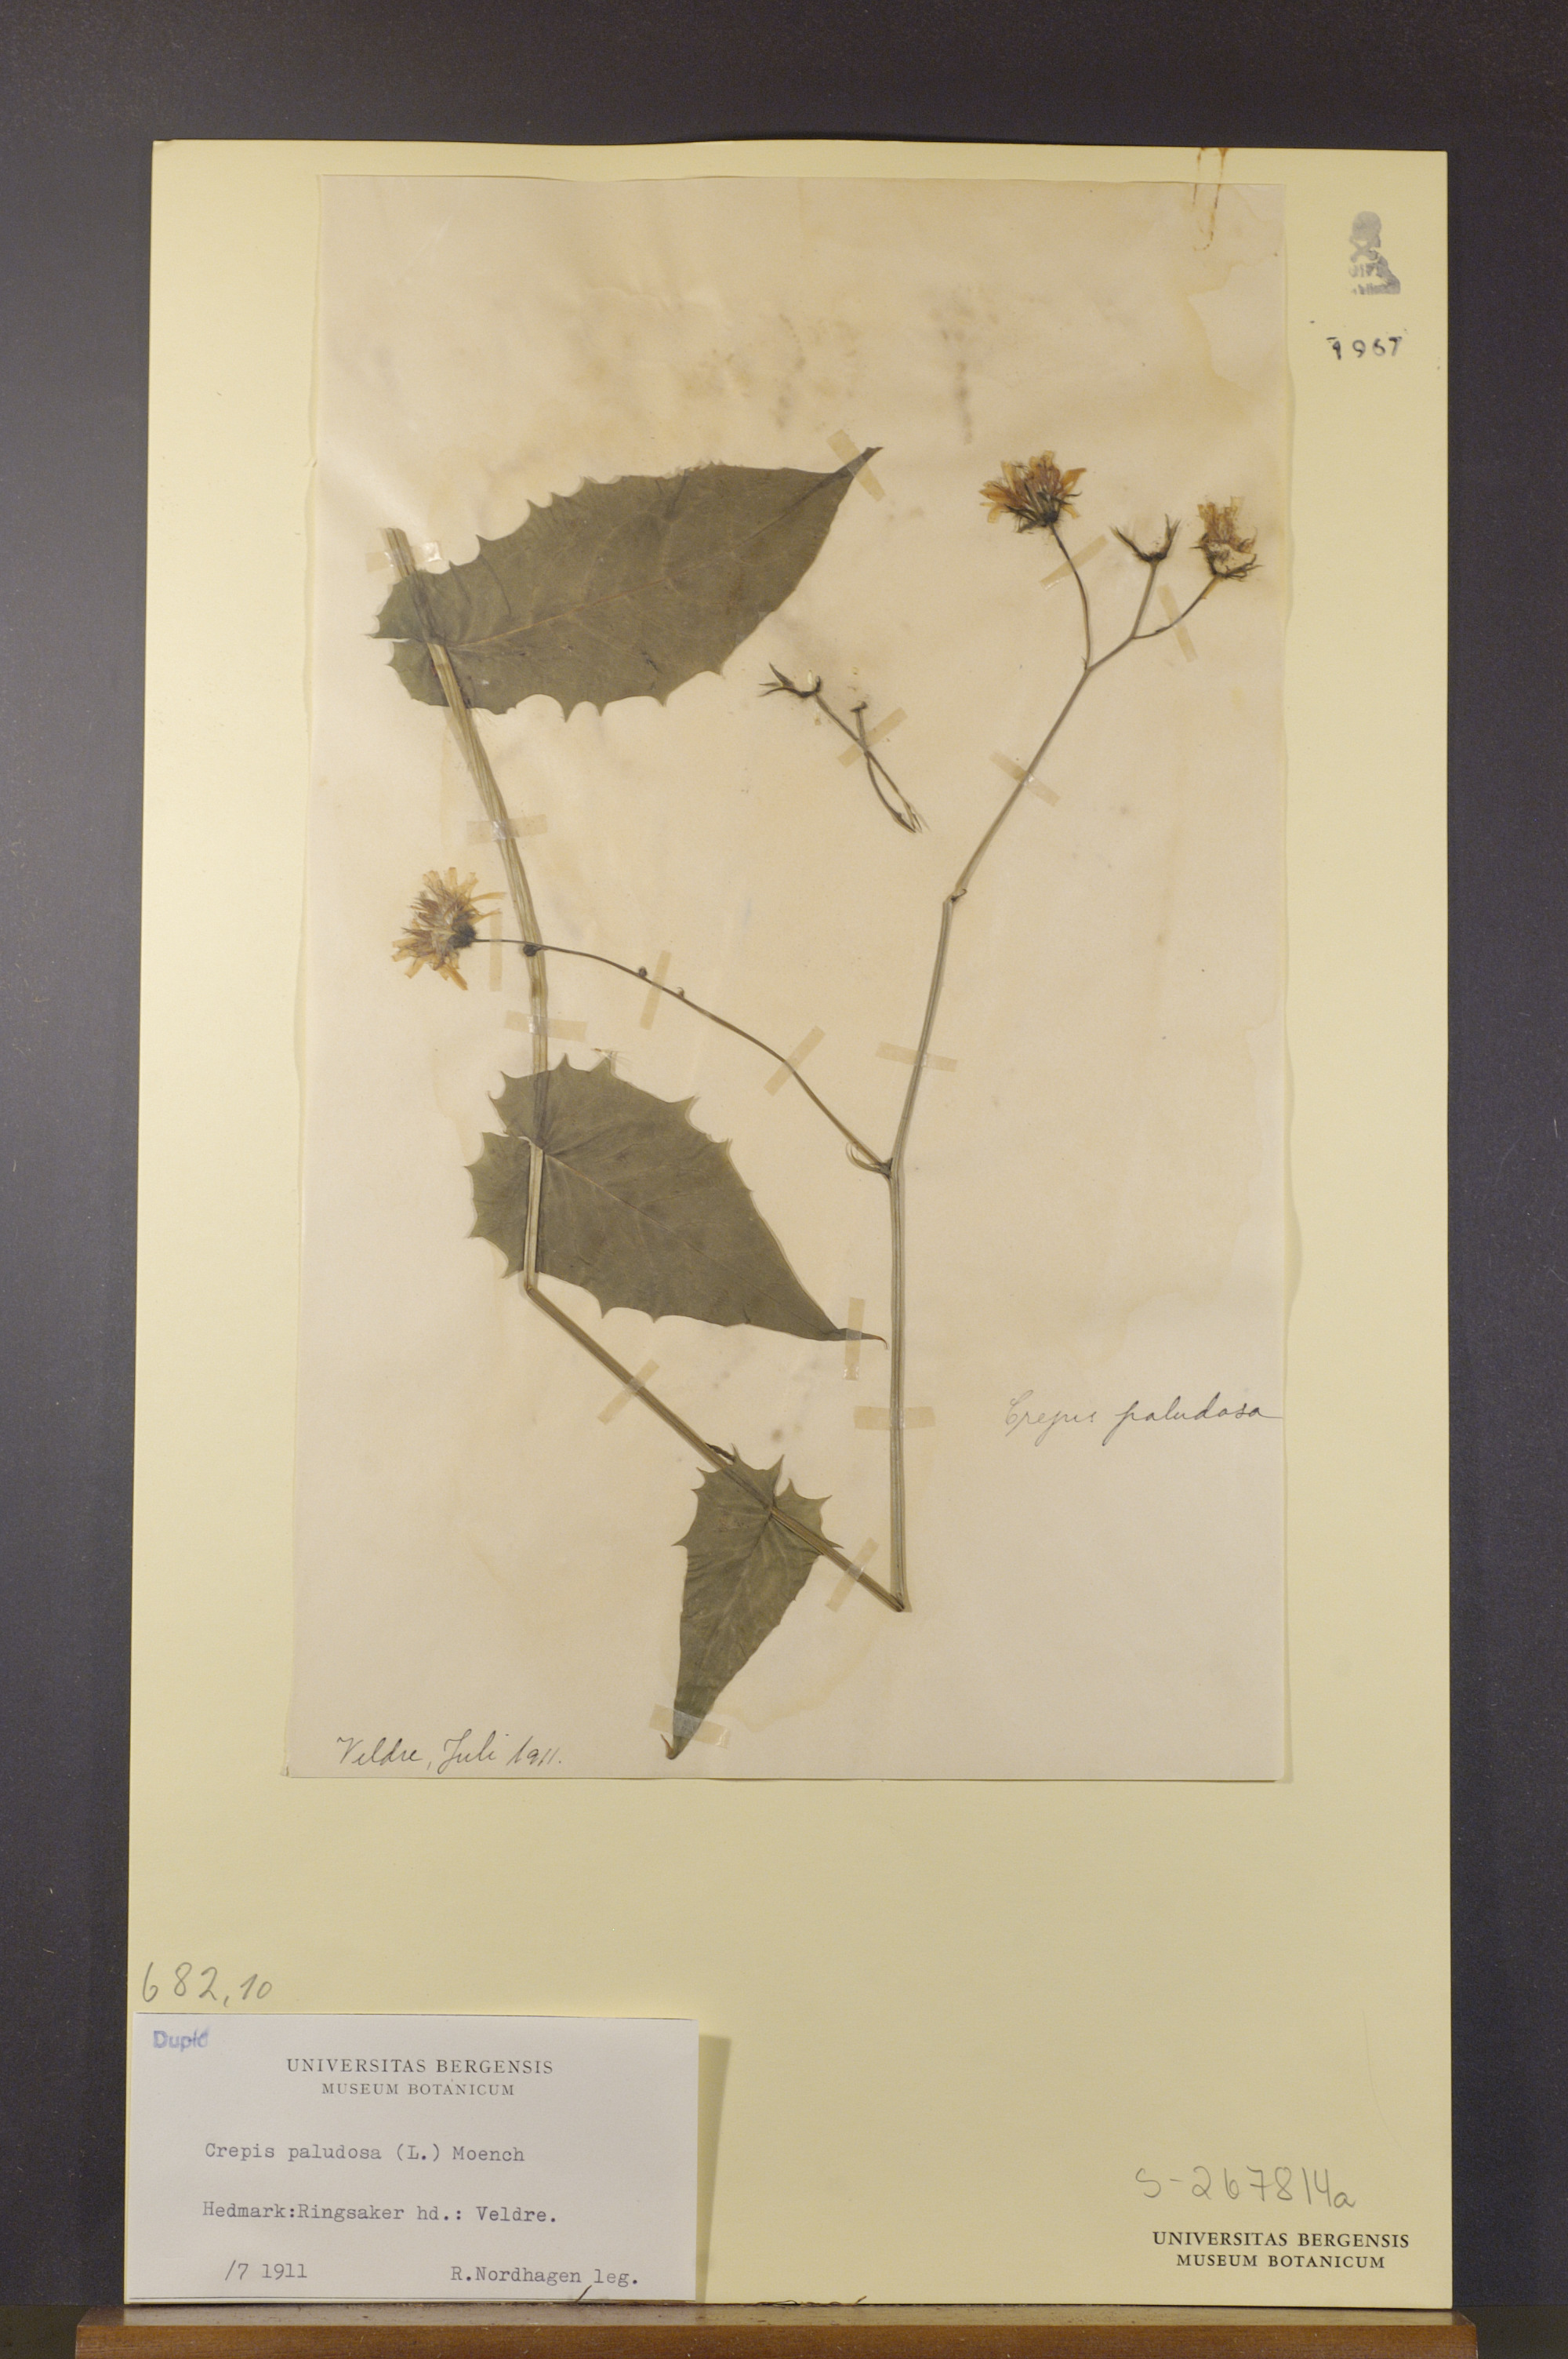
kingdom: Plantae
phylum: Tracheophyta
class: Magnoliopsida
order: Asterales
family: Asteraceae
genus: Crepis
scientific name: Crepis paludosa
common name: Marsh hawk's-beard
